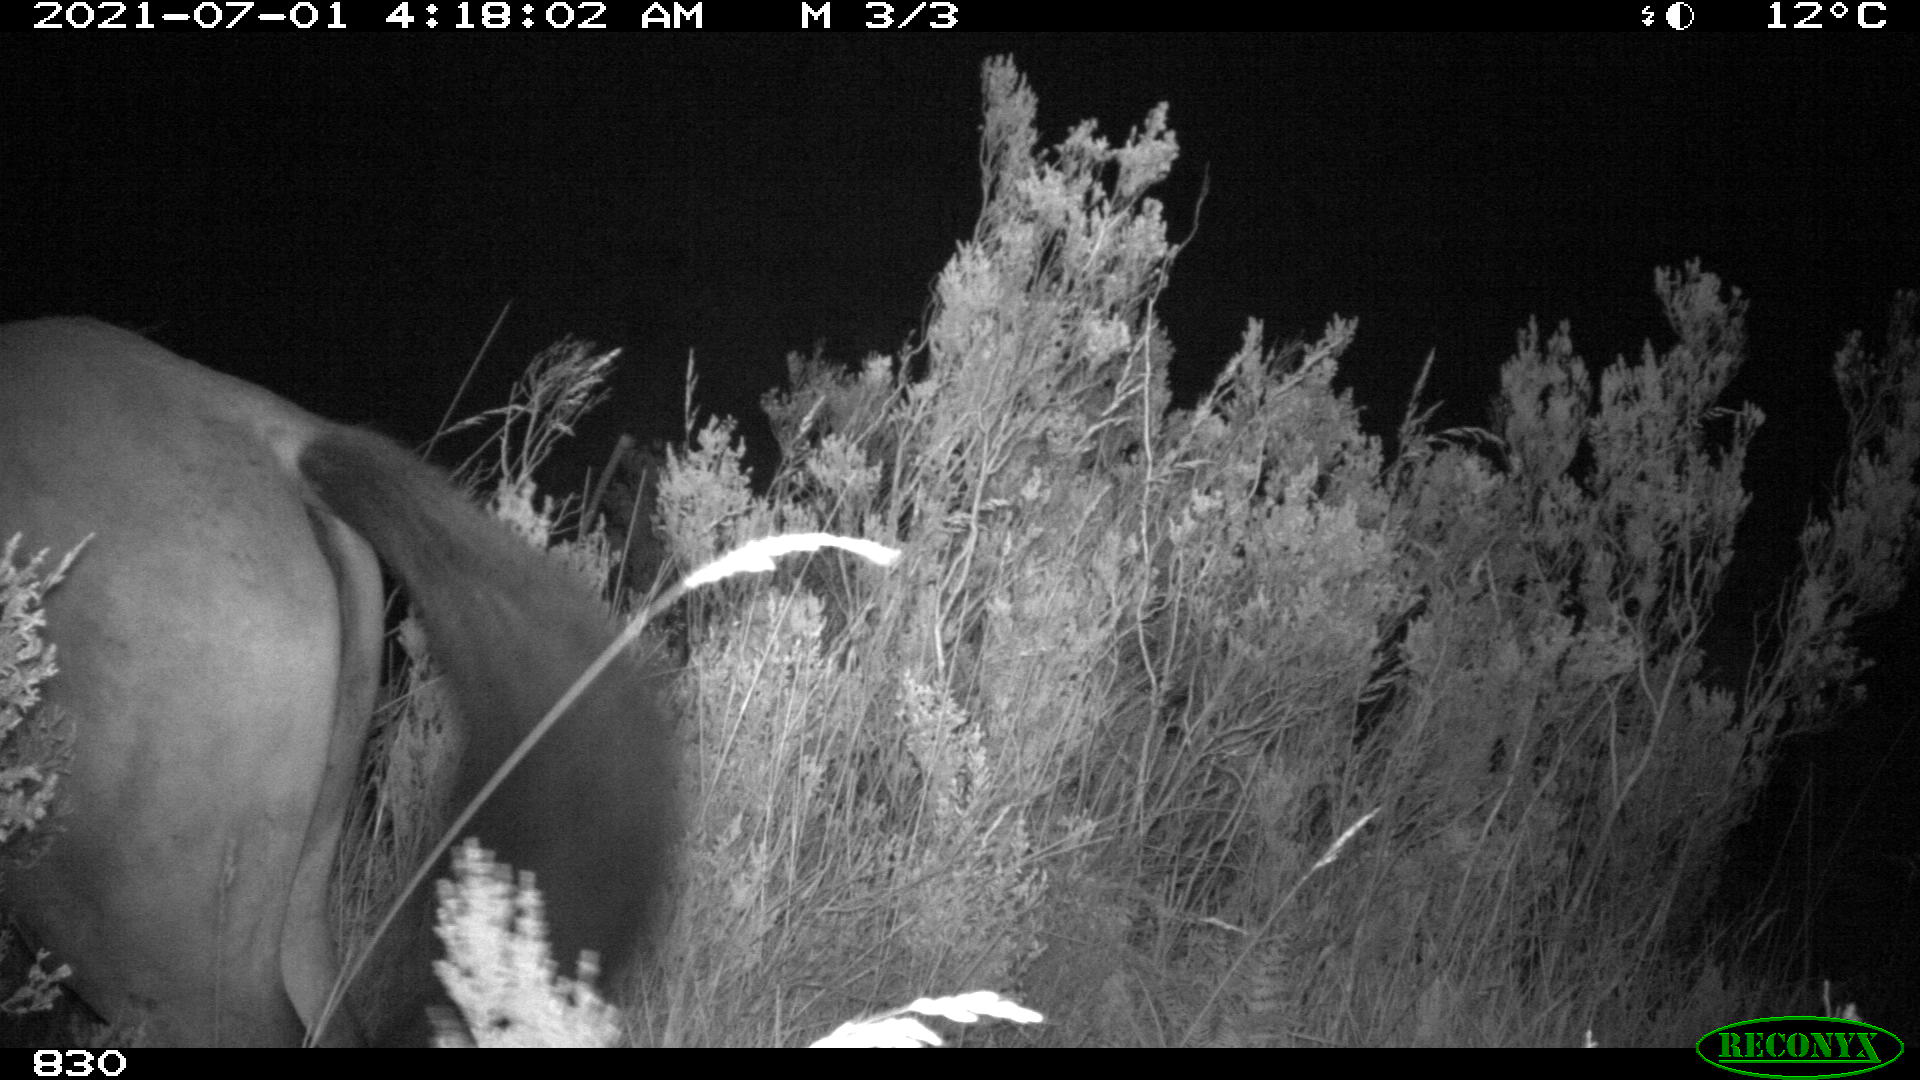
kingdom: Animalia
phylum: Chordata
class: Mammalia
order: Perissodactyla
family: Equidae
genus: Equus
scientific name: Equus caballus
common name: Horse
